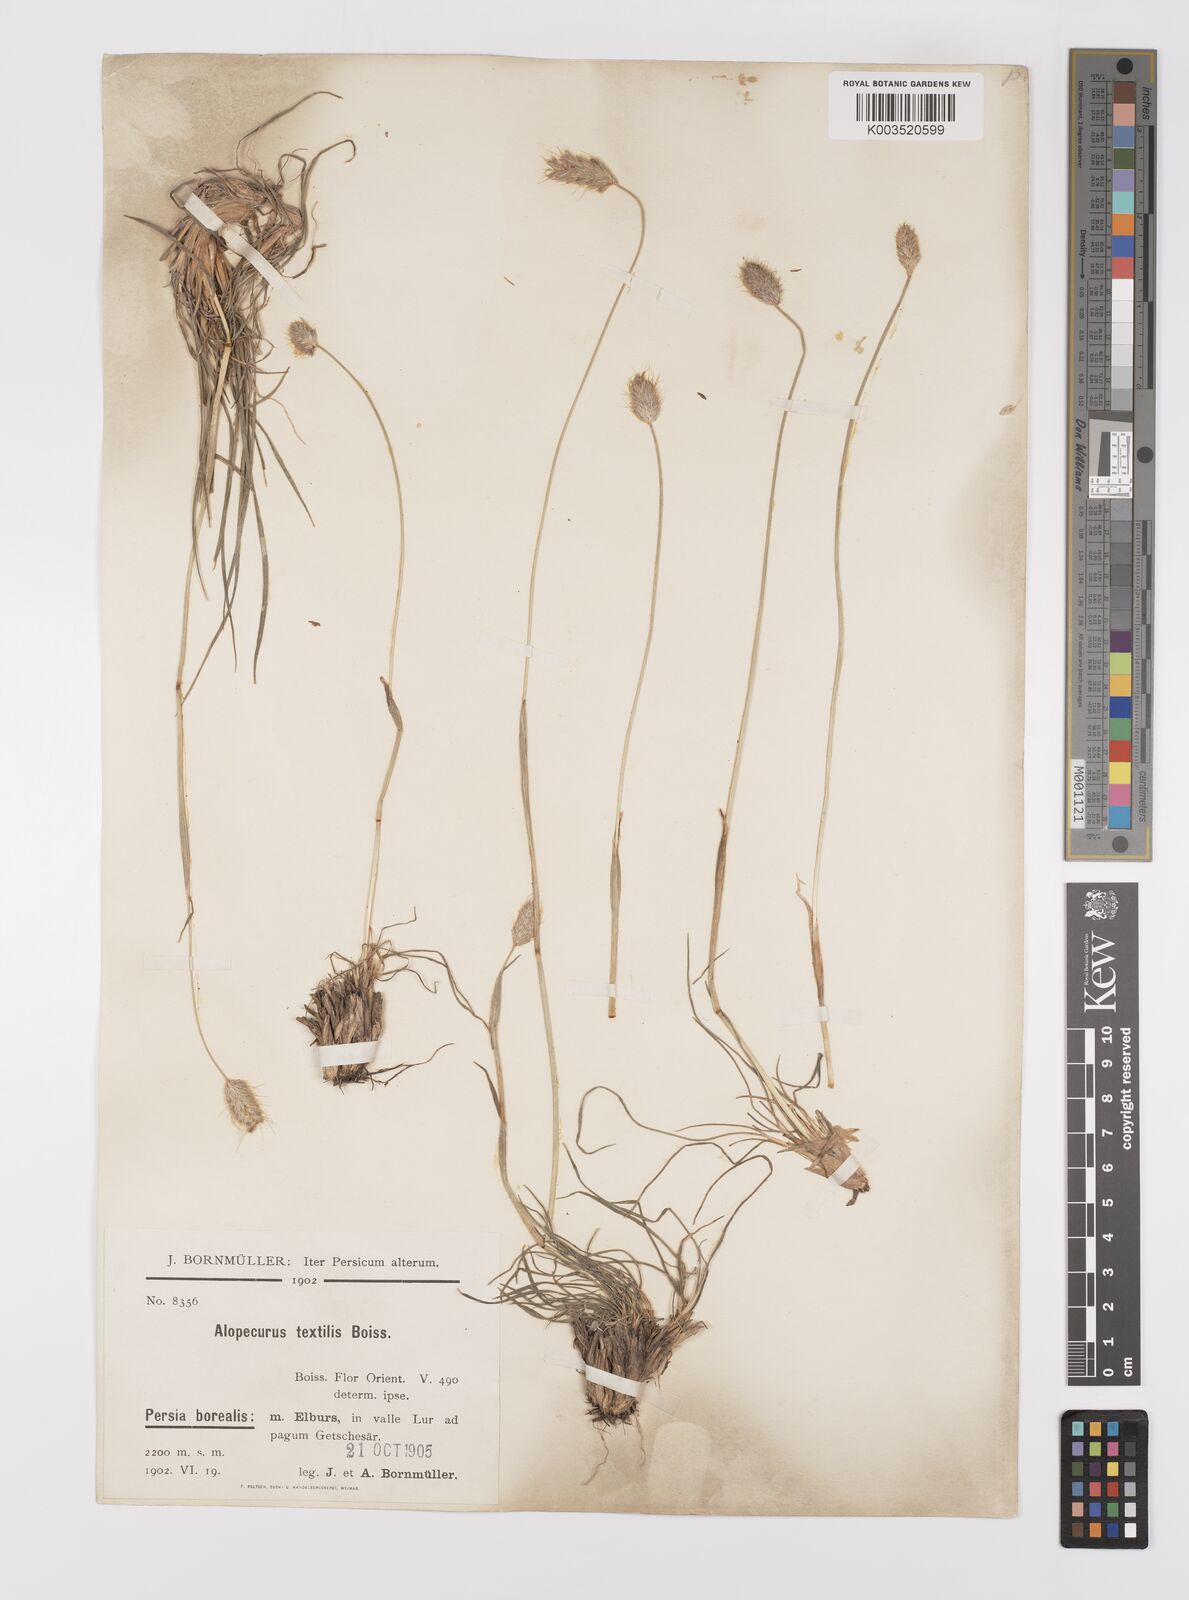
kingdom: Plantae
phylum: Tracheophyta
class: Liliopsida
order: Poales
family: Poaceae
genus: Alopecurus
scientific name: Alopecurus textilis
